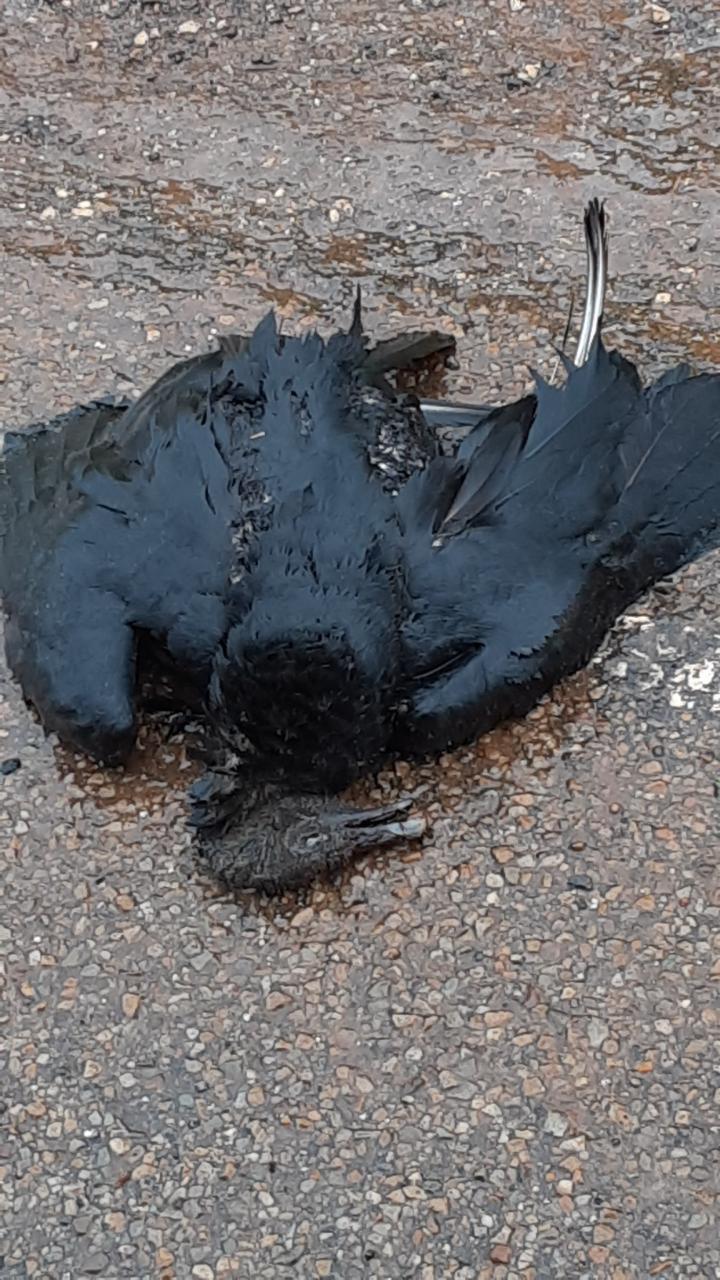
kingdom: Animalia
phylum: Chordata
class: Aves
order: Accipitriformes
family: Cathartidae
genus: Coragyps
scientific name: Coragyps atratus
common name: Black vulture
